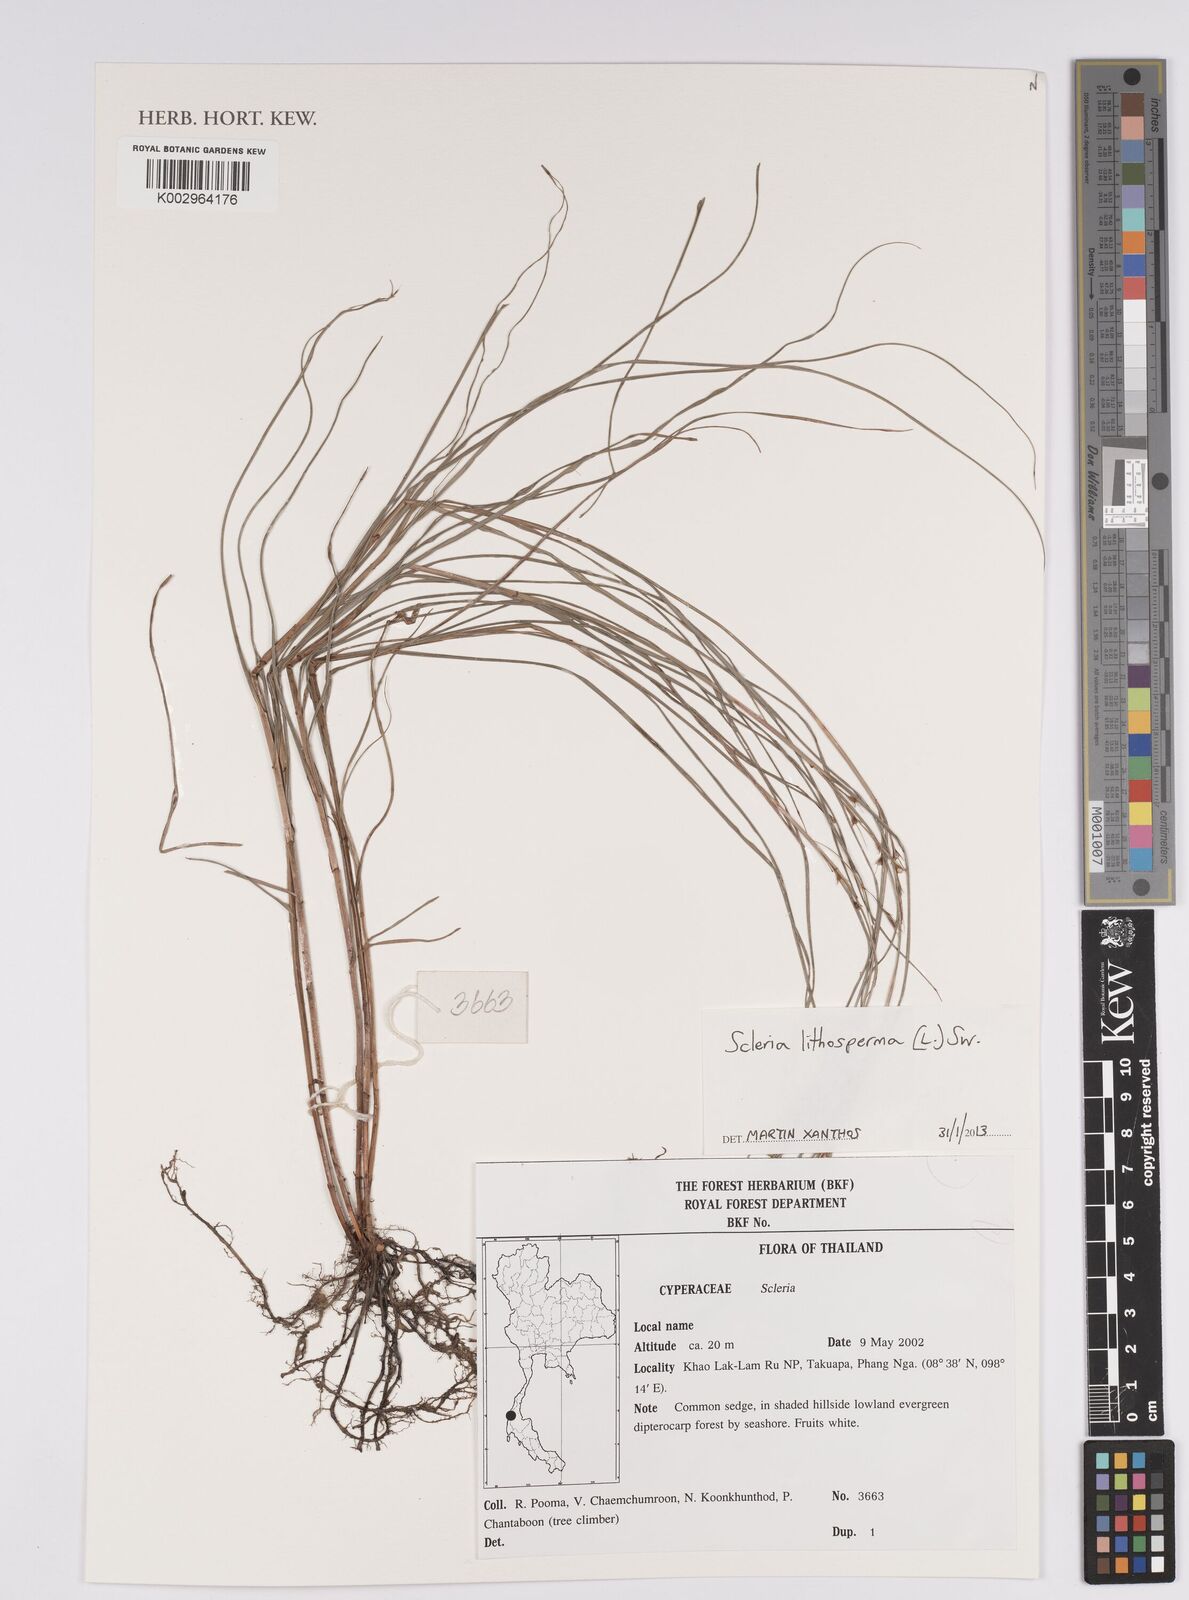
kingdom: Plantae
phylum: Tracheophyta
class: Liliopsida
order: Poales
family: Cyperaceae
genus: Scleria
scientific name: Scleria lithosperma
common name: Florida keys nut-rush
